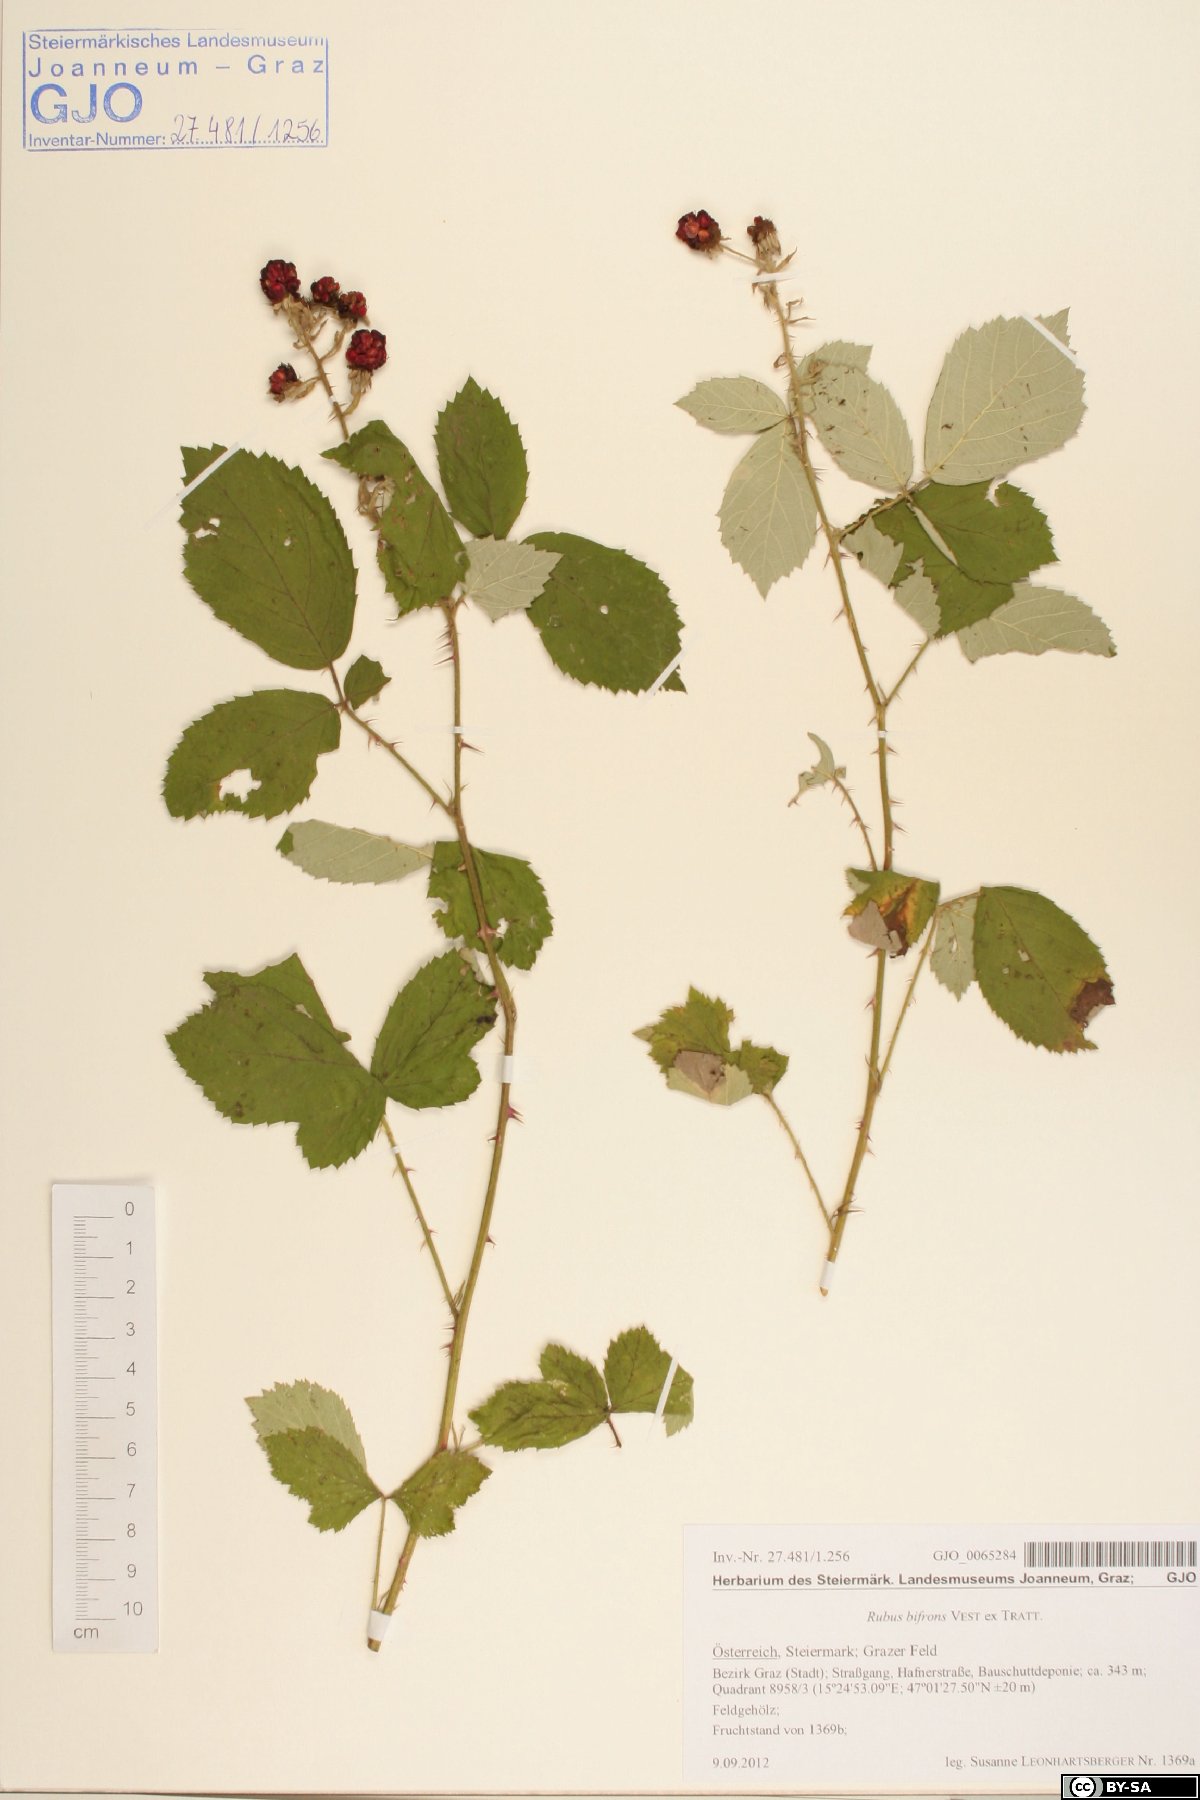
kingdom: Plantae
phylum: Tracheophyta
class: Magnoliopsida
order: Rosales
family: Rosaceae
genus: Rubus
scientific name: Rubus bifrons
